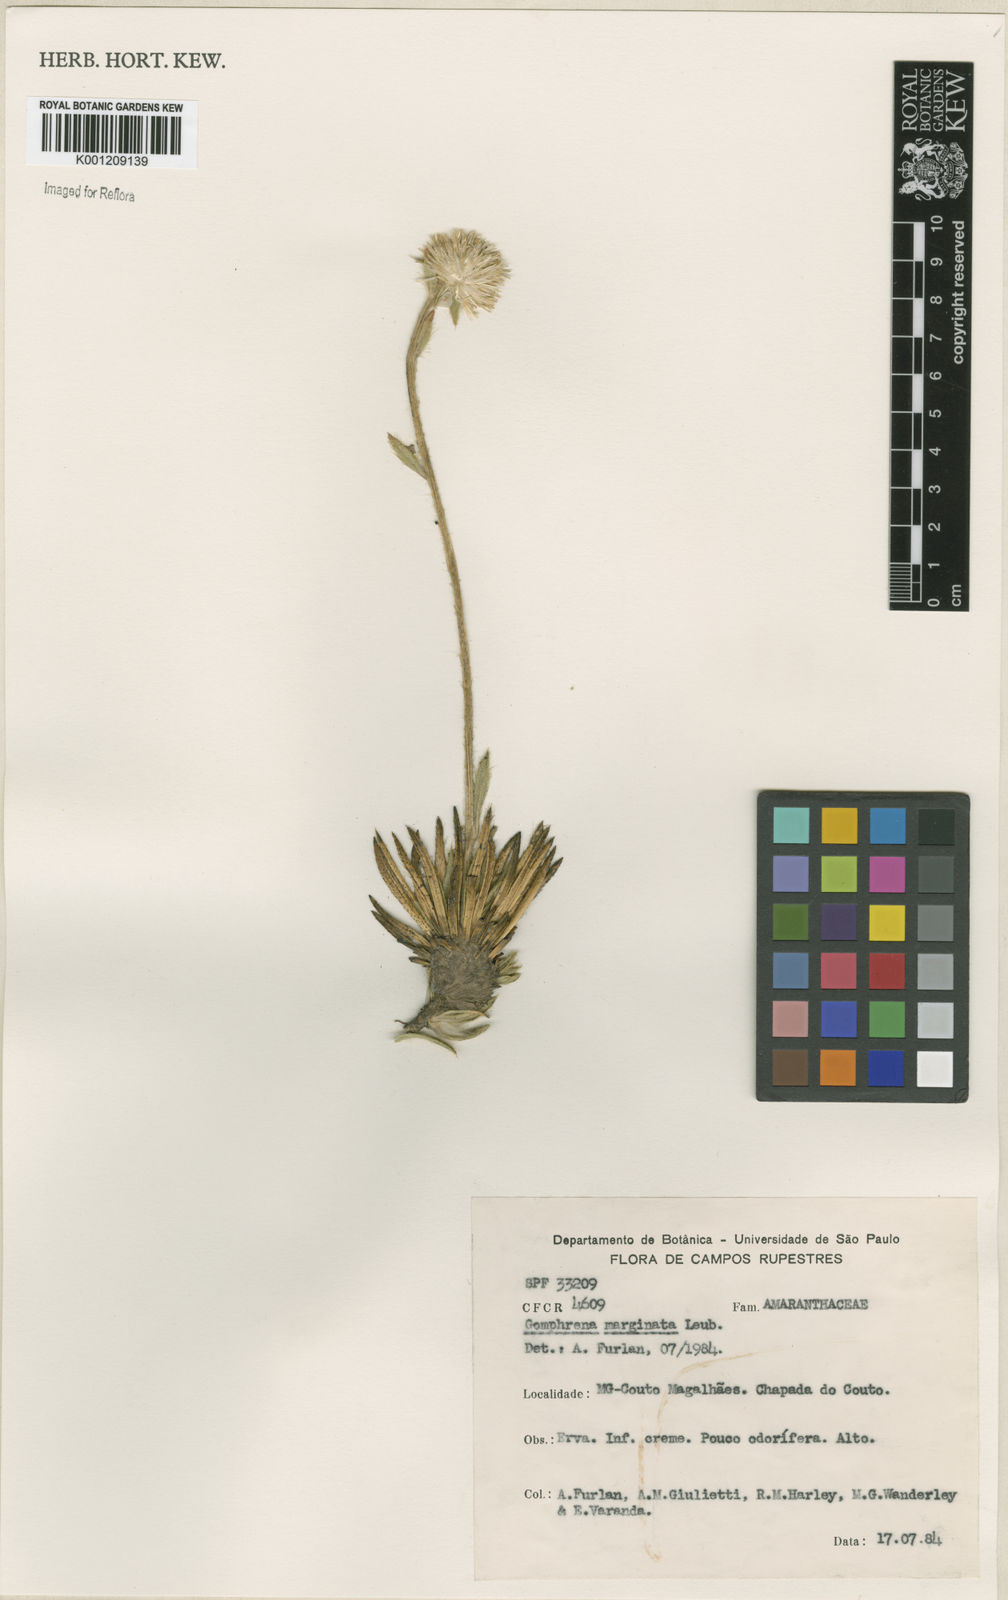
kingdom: Plantae
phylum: Tracheophyta
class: Magnoliopsida
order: Caryophyllales
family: Amaranthaceae
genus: Gomphrena
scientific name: Gomphrena marginata
